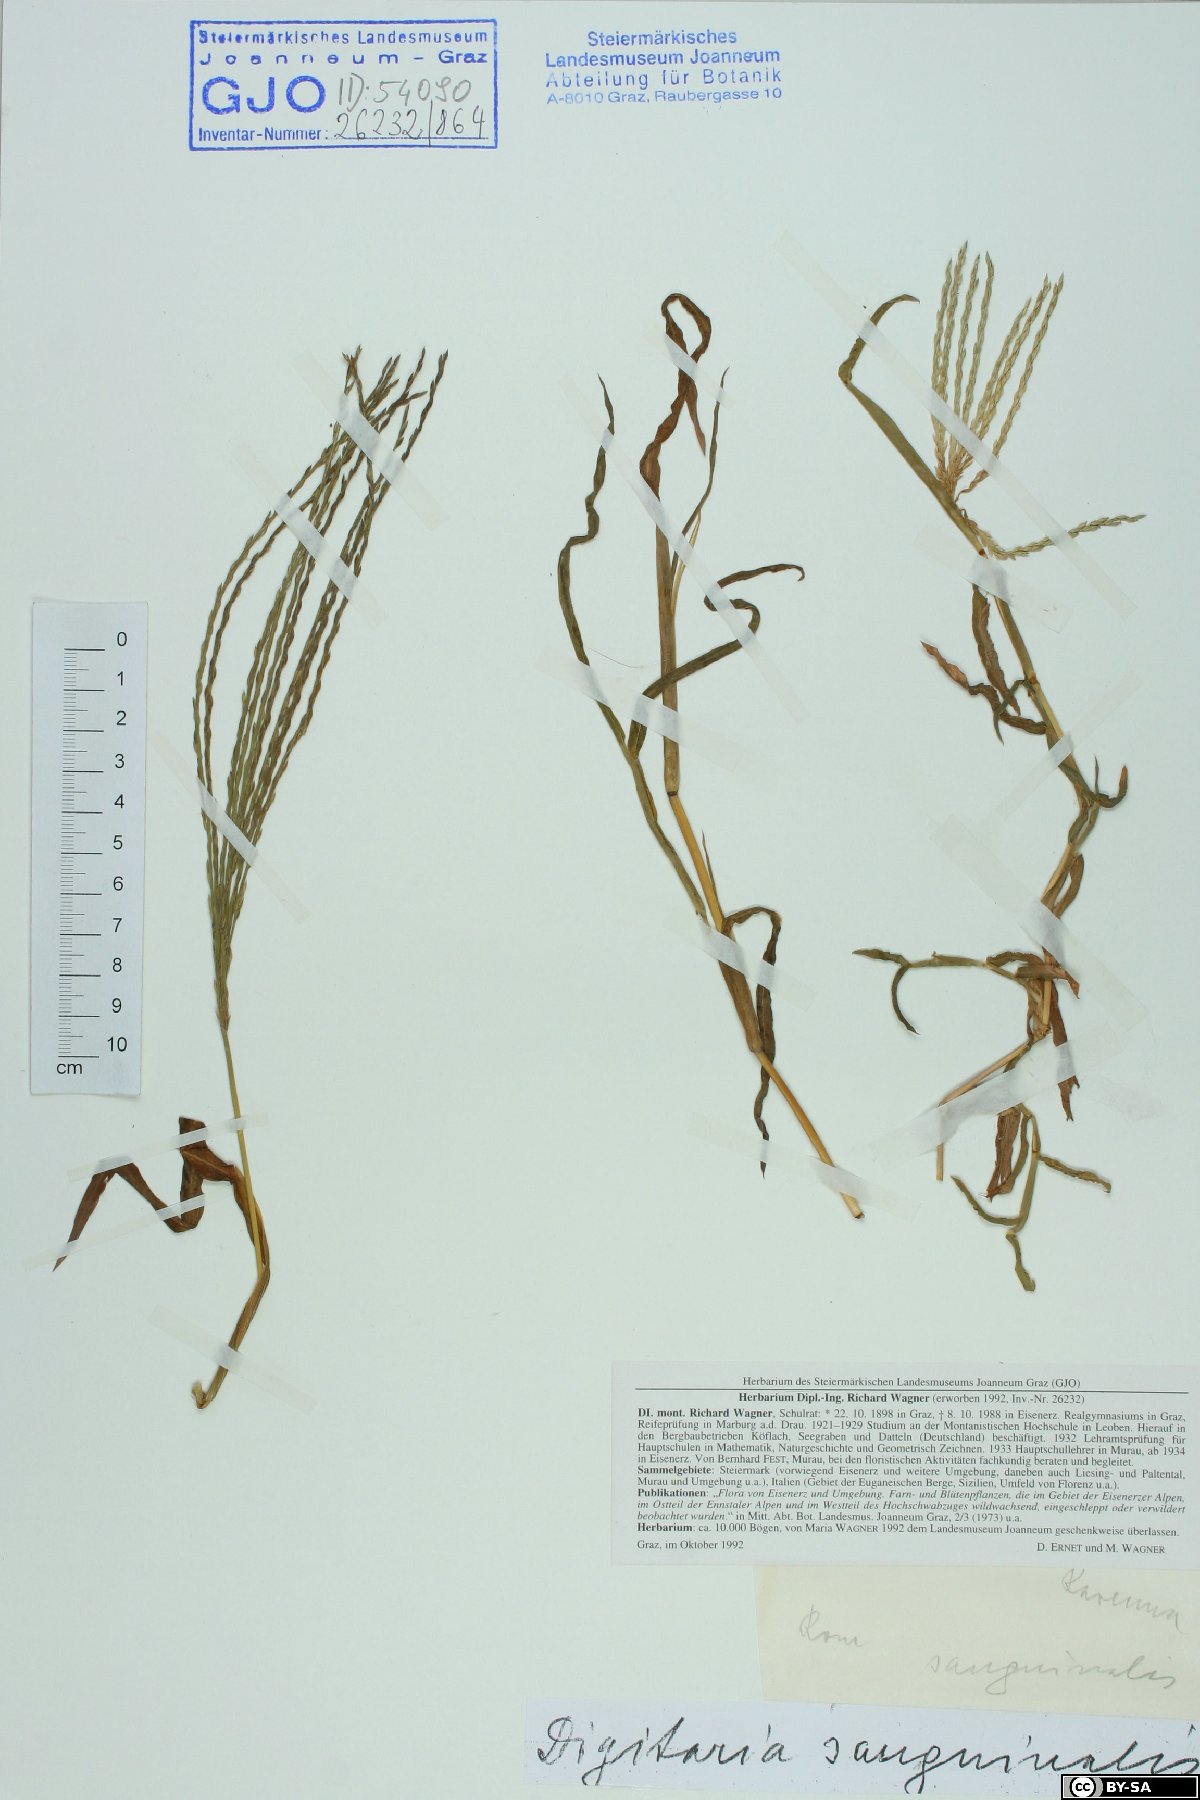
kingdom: Plantae
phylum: Tracheophyta
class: Liliopsida
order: Poales
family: Poaceae
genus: Digitaria
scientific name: Digitaria sanguinalis
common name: Hairy crabgrass
